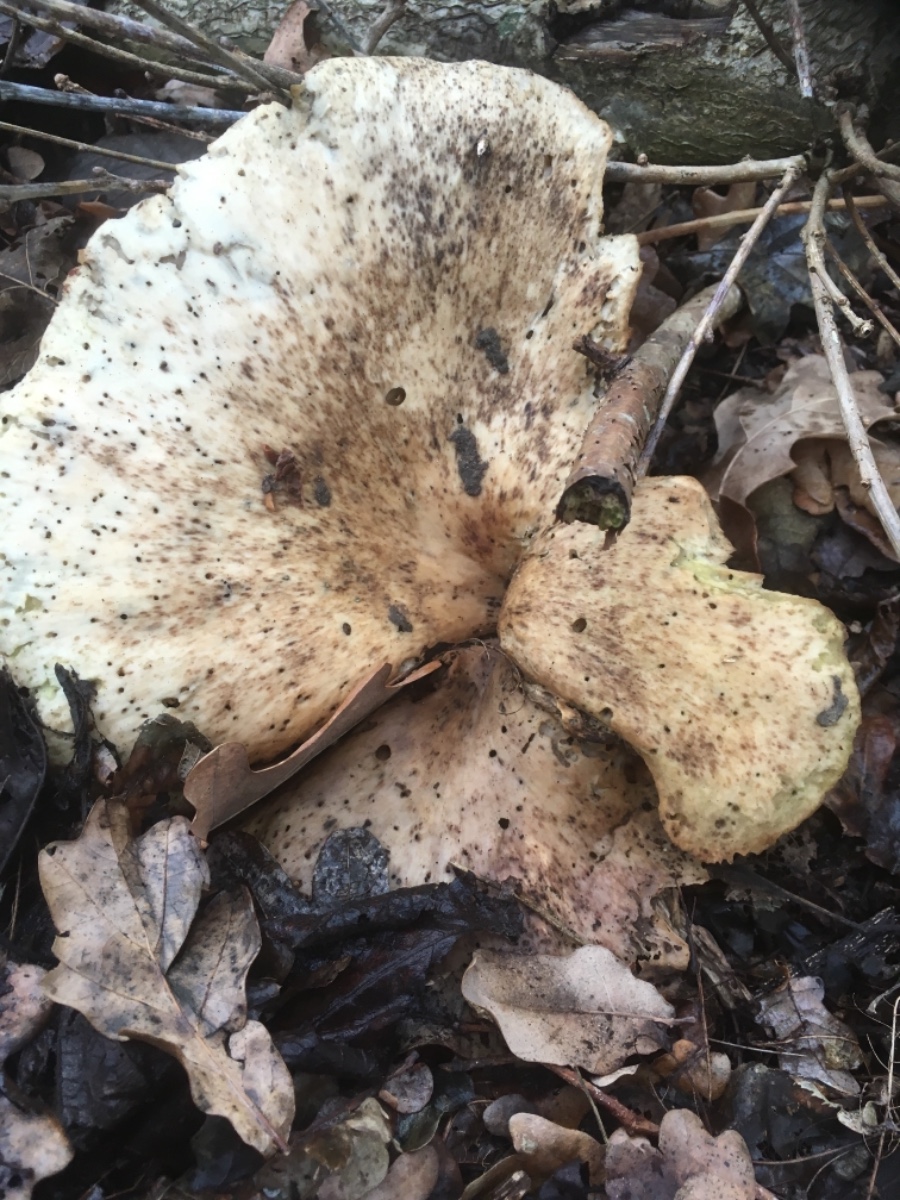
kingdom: Fungi
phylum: Basidiomycota
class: Agaricomycetes
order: Polyporales
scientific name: Polyporales
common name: poresvampordenen
